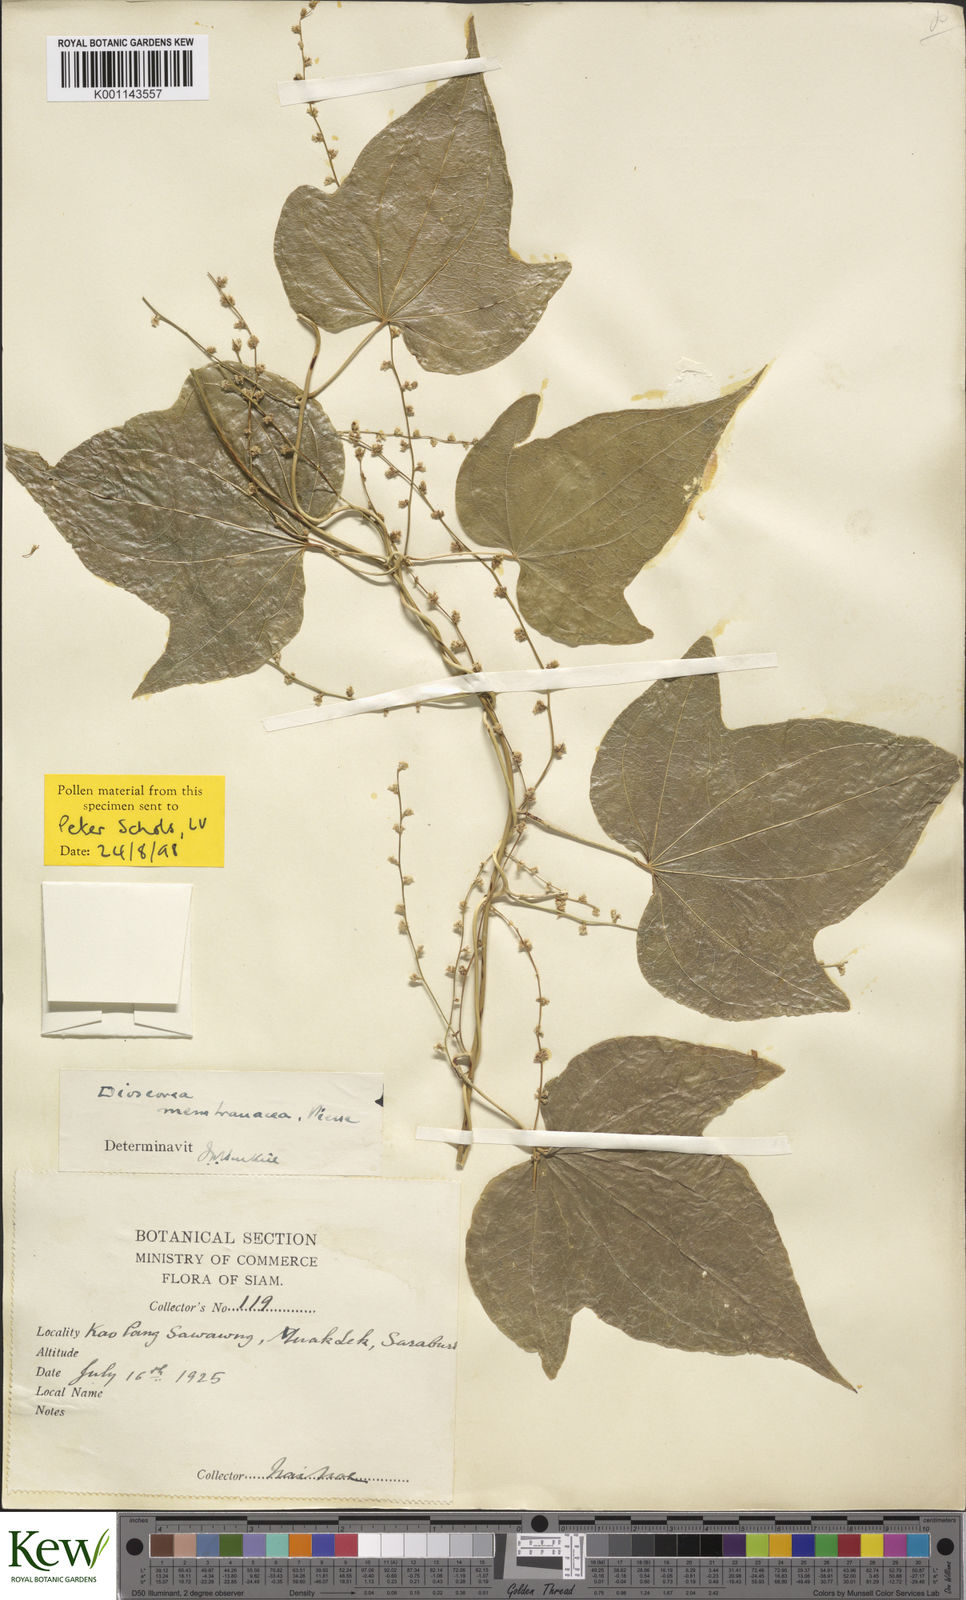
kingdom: Plantae
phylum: Tracheophyta
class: Liliopsida
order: Dioscoreales
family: Dioscoreaceae
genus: Dioscorea
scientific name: Dioscorea membranacea
